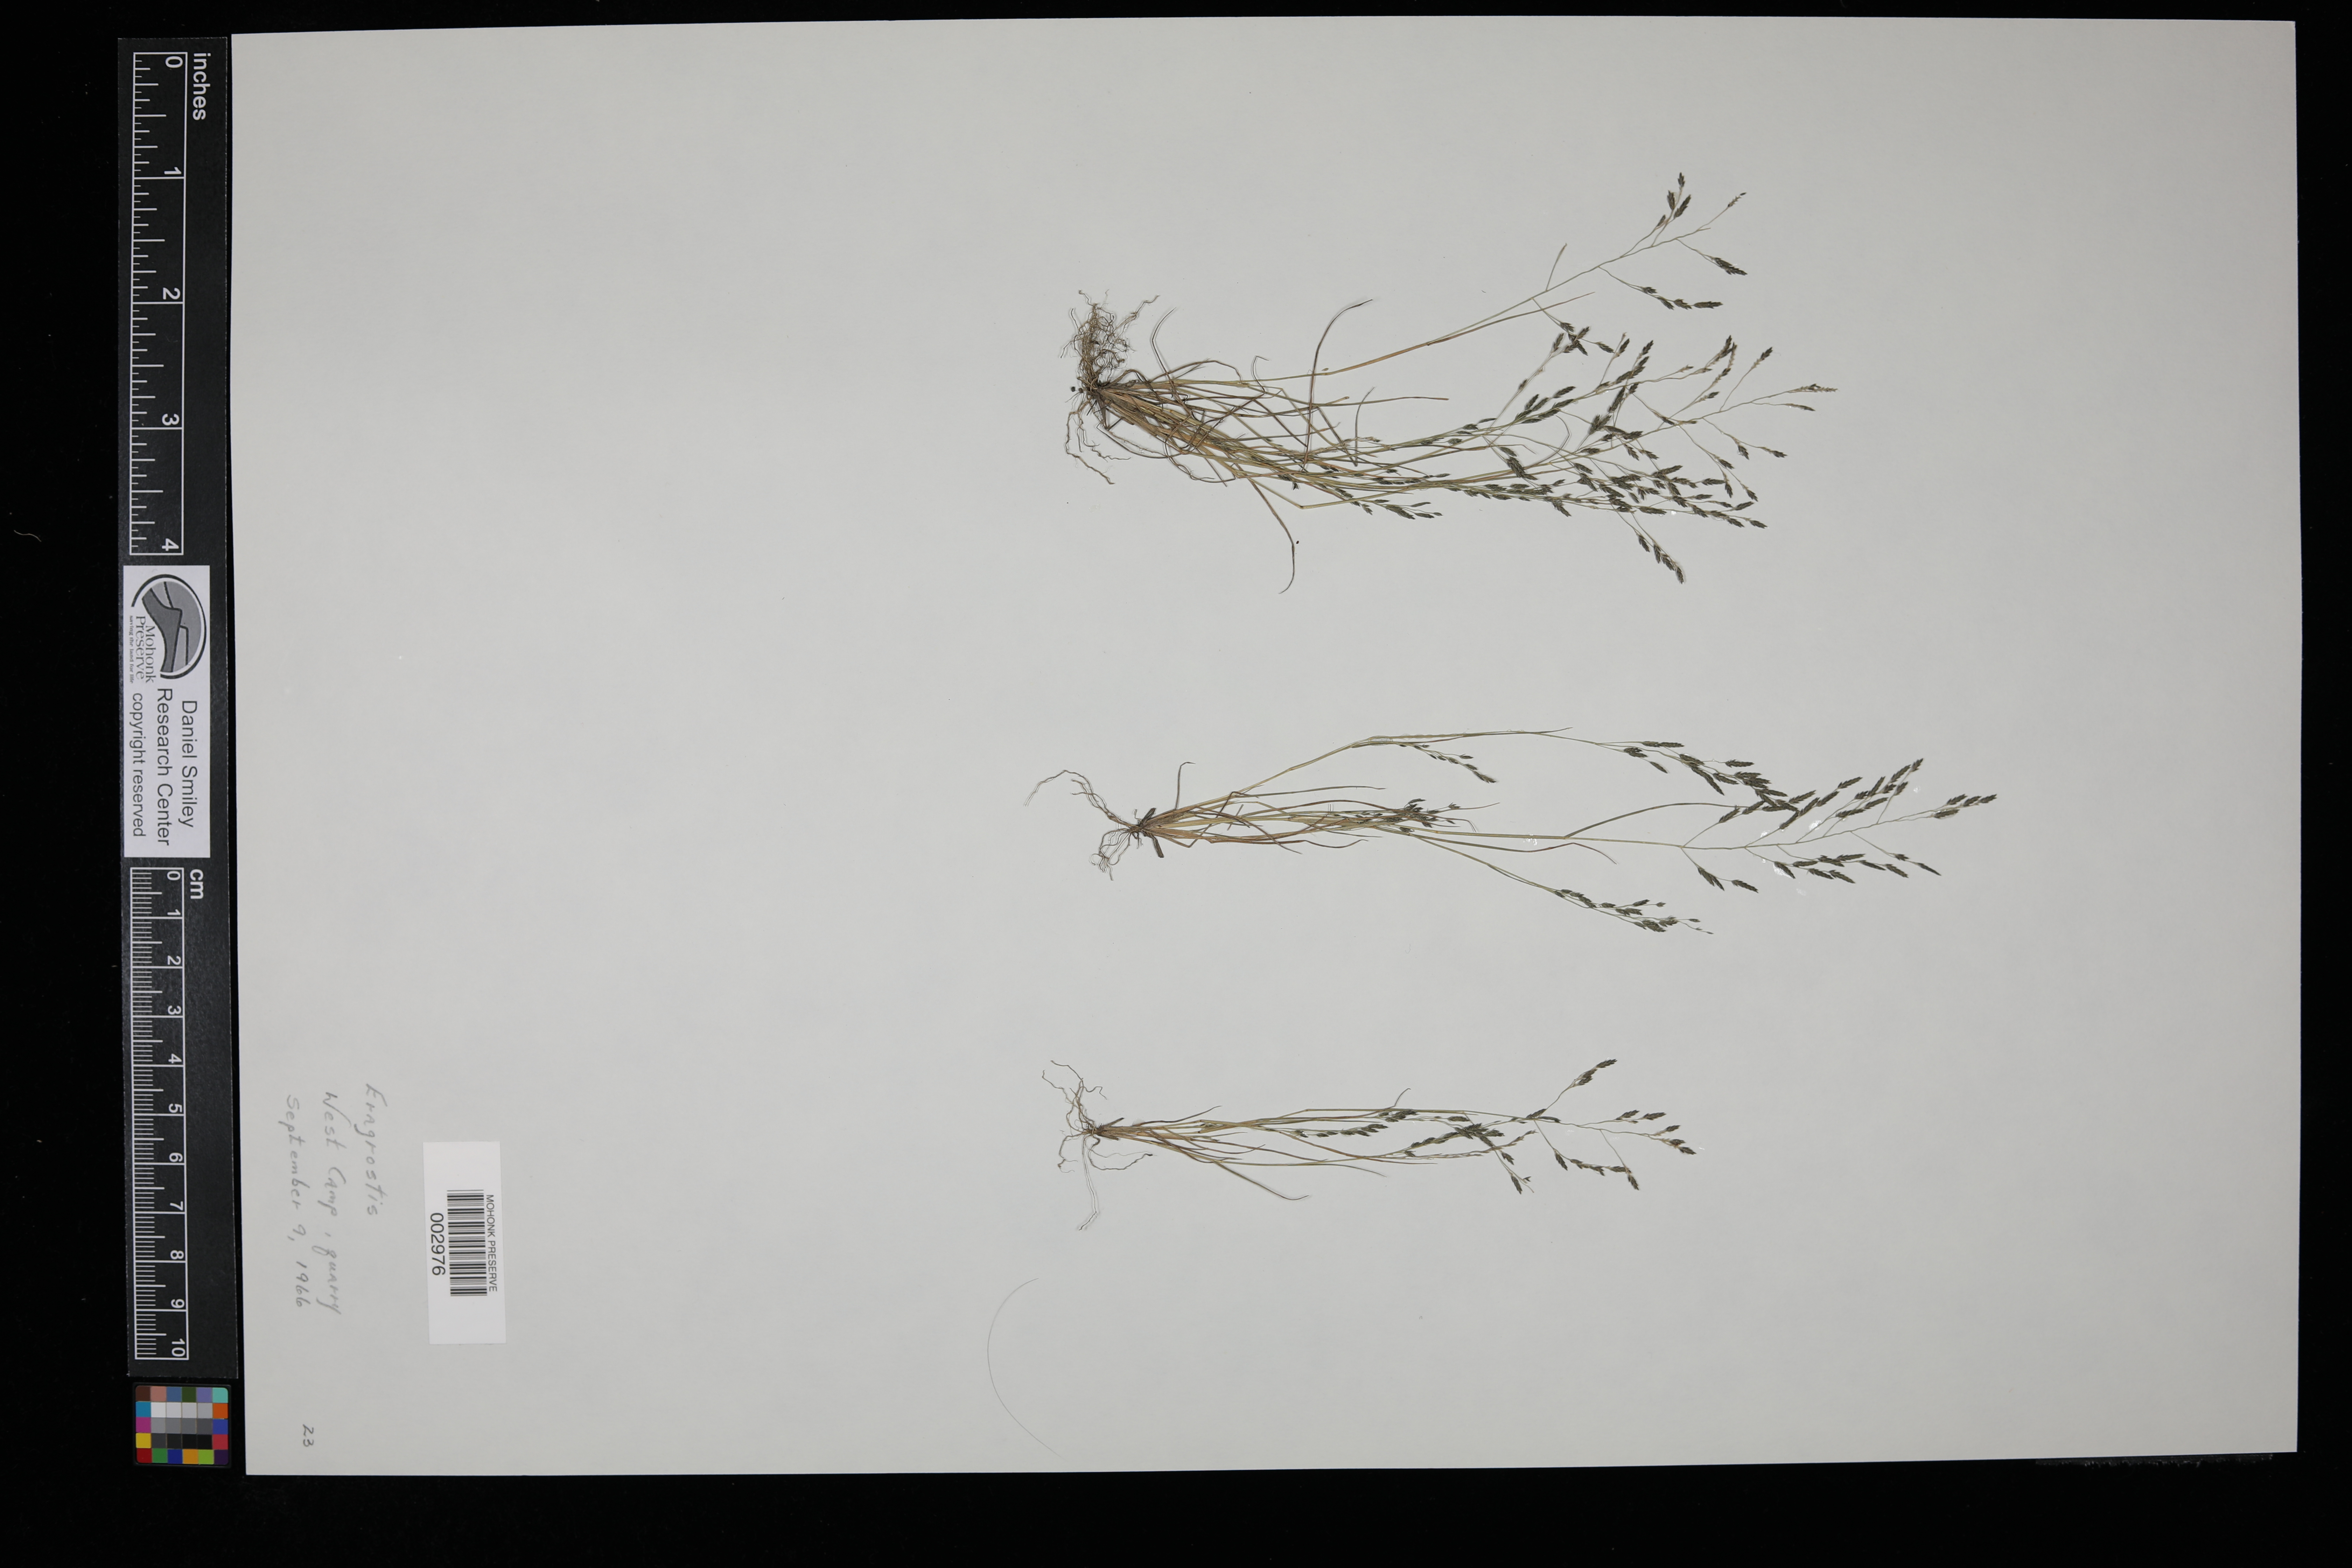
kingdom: Plantae
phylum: Tracheophyta
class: Liliopsida
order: Poales
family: Poaceae
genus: Eragrostis
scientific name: Eragrostis
